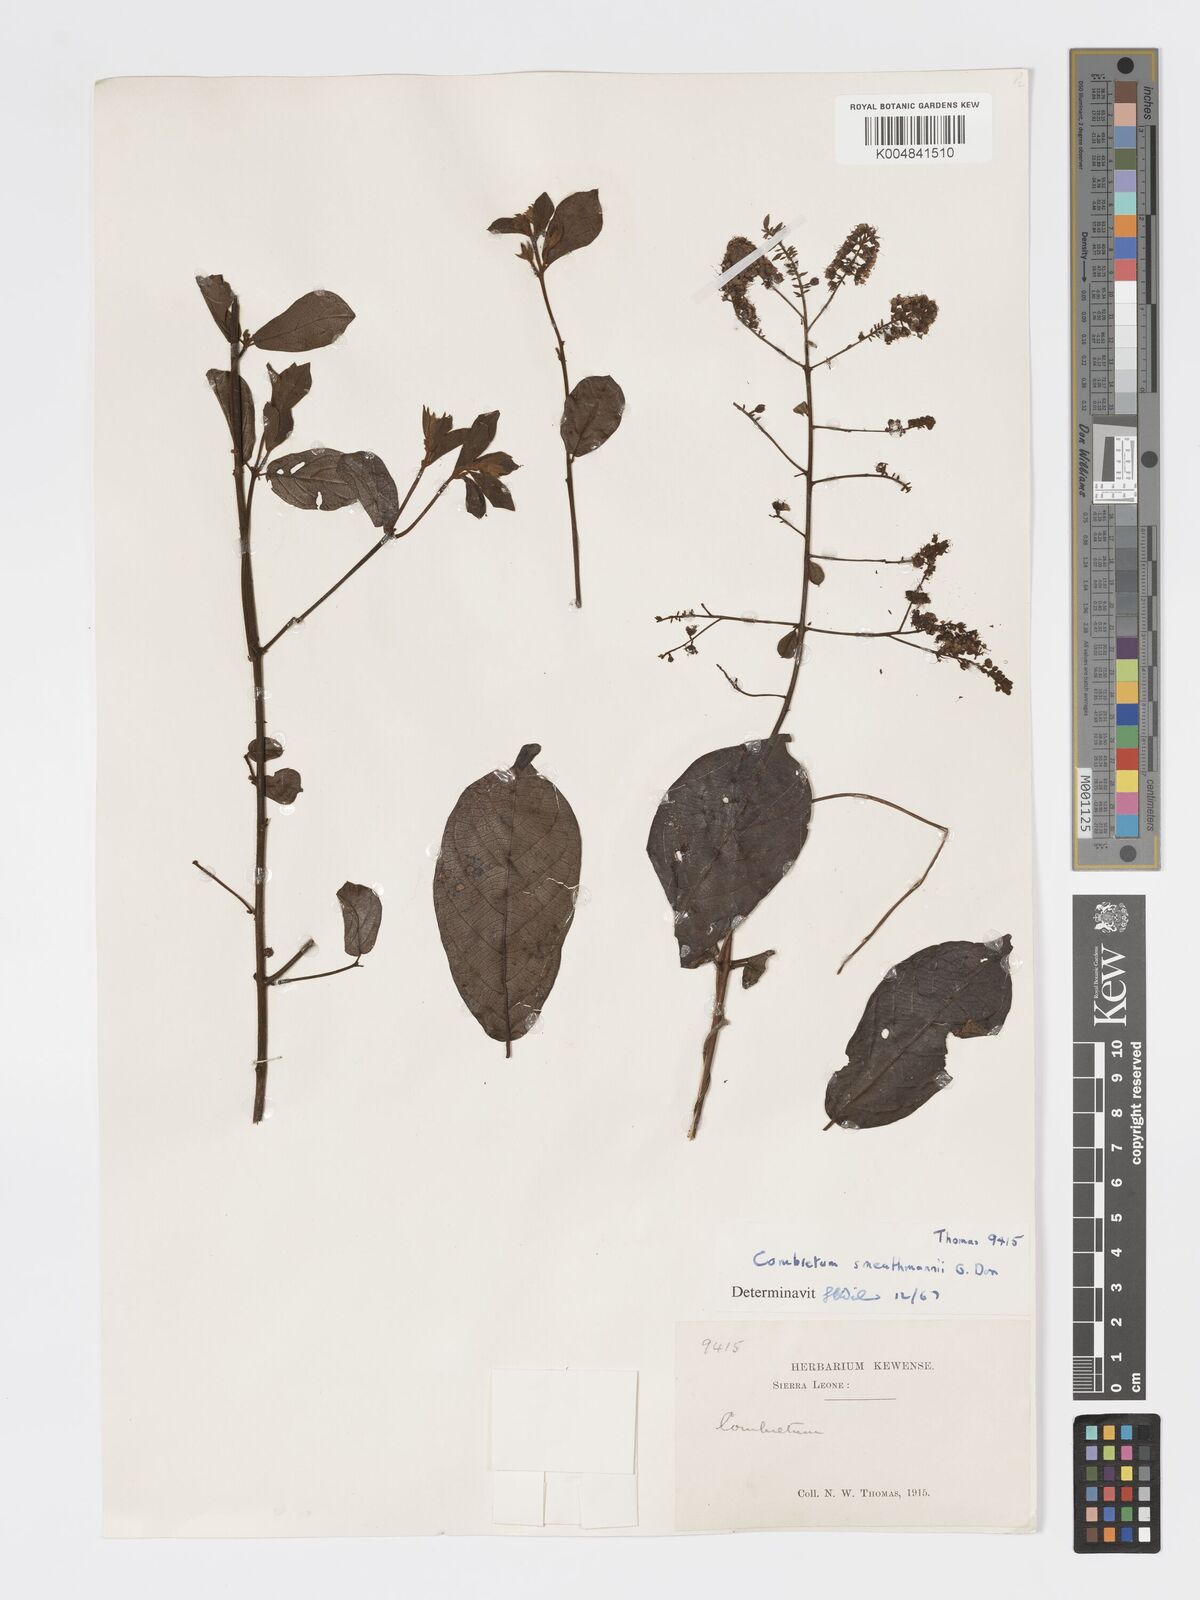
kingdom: Plantae
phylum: Tracheophyta
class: Magnoliopsida
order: Myrtales
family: Combretaceae
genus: Combretum
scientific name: Combretum mucronatum
